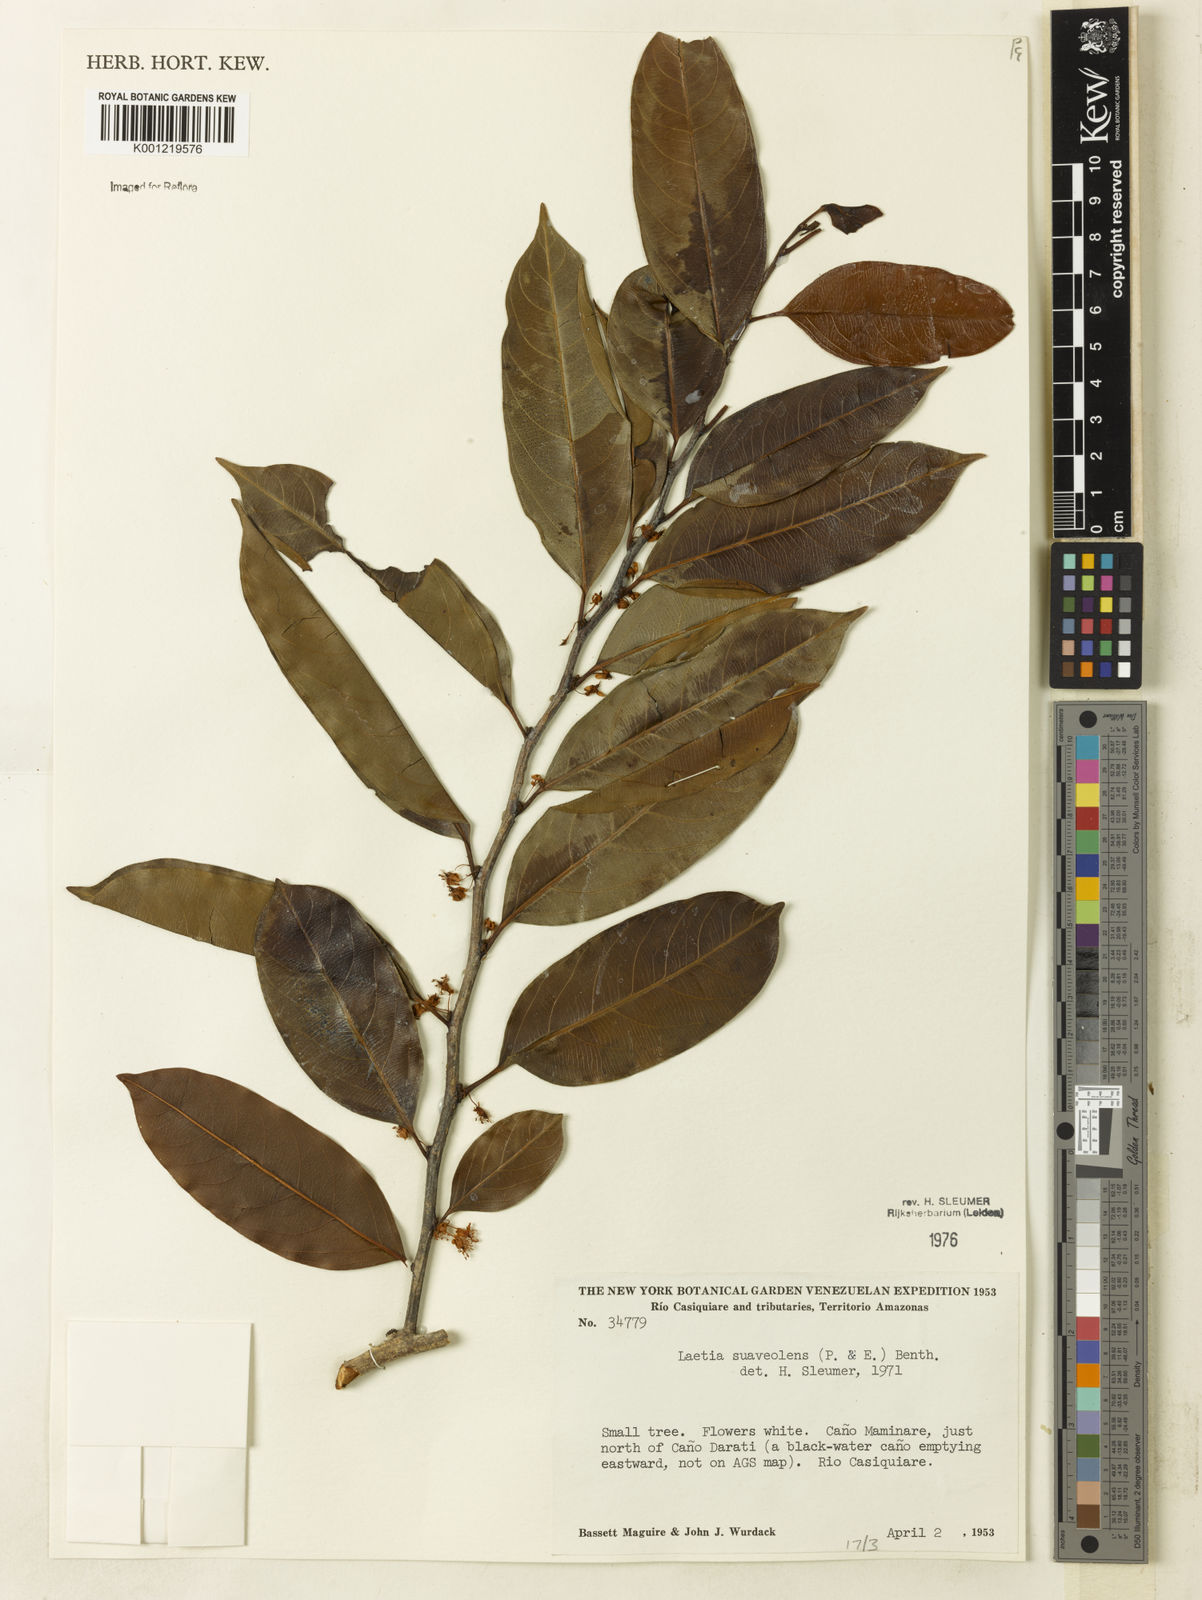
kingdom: Plantae
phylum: Tracheophyta
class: Magnoliopsida
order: Malpighiales
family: Salicaceae
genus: Casearia
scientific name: Casearia suaveolens
